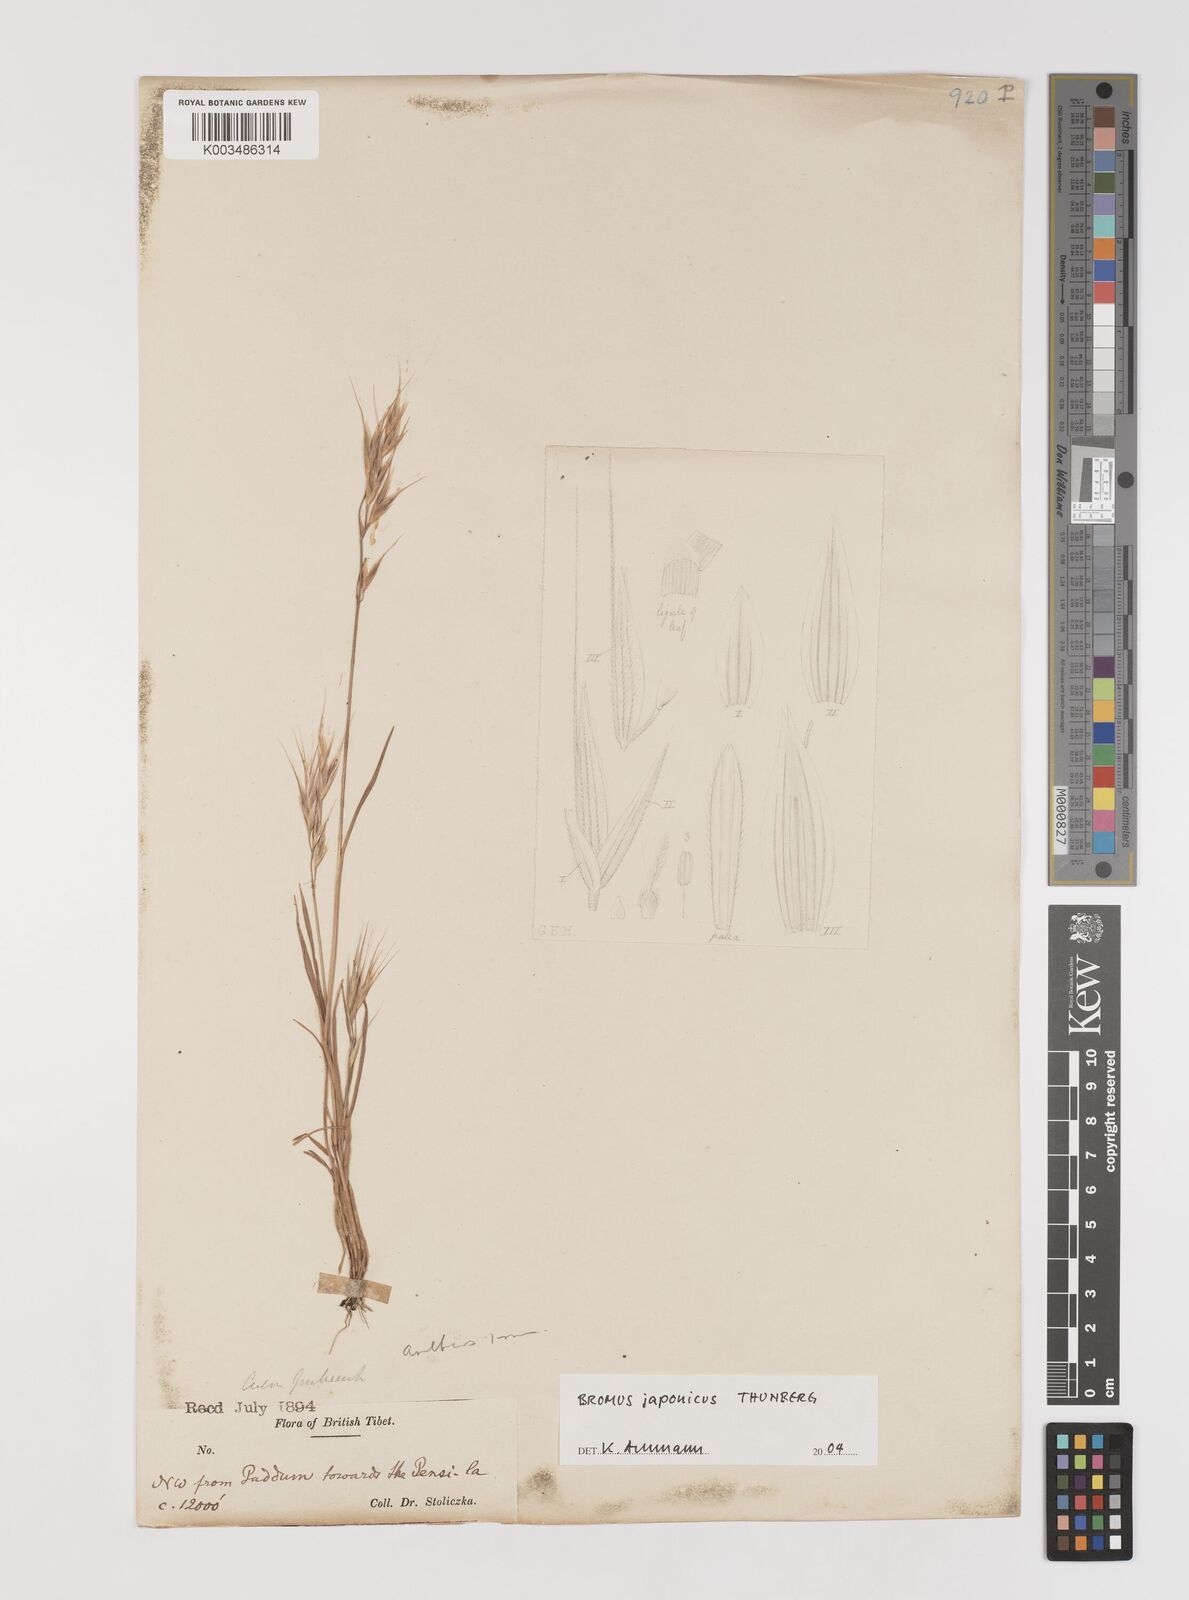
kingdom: Plantae
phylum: Tracheophyta
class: Liliopsida
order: Poales
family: Poaceae
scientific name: Poaceae
